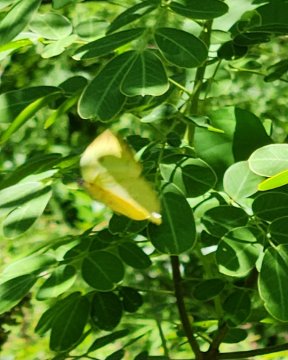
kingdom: Animalia
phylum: Arthropoda
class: Insecta
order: Lepidoptera
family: Pieridae
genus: Phoebis
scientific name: Phoebis philea
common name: Orange-barred Sulphur
